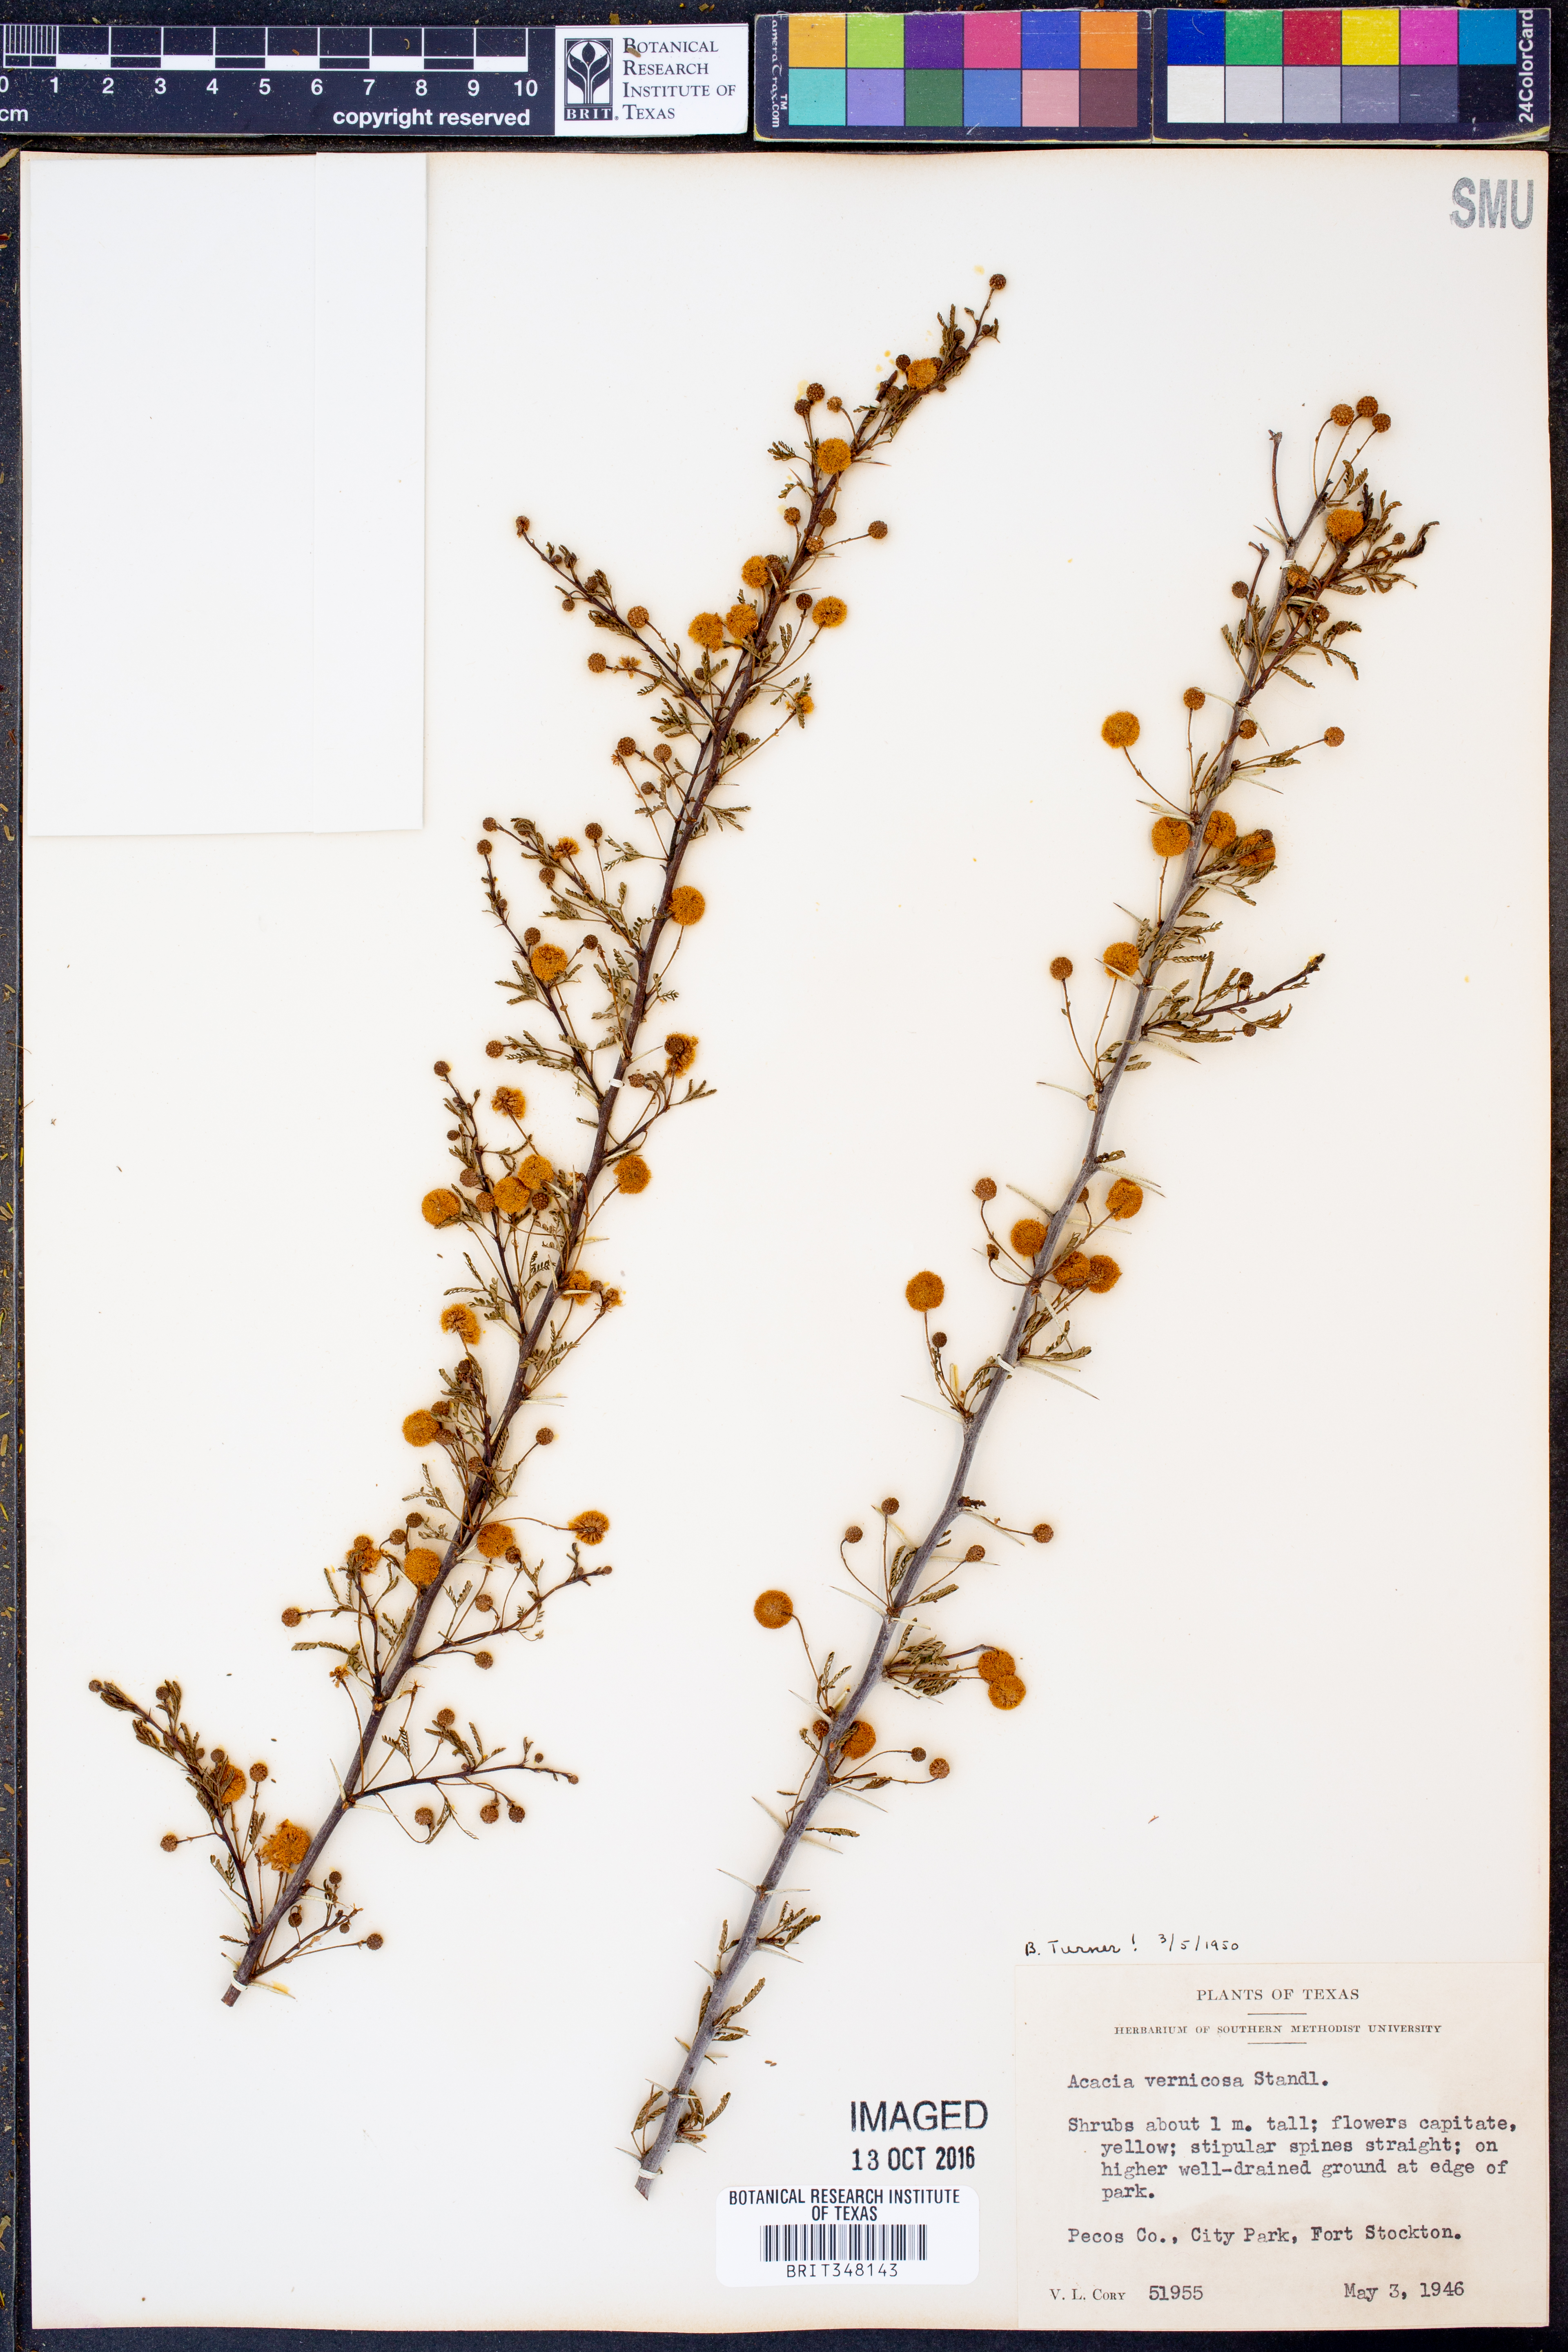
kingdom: Plantae
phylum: Tracheophyta
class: Magnoliopsida
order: Fabales
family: Fabaceae
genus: Vachellia
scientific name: Vachellia vernicosa
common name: Viscid acacia
